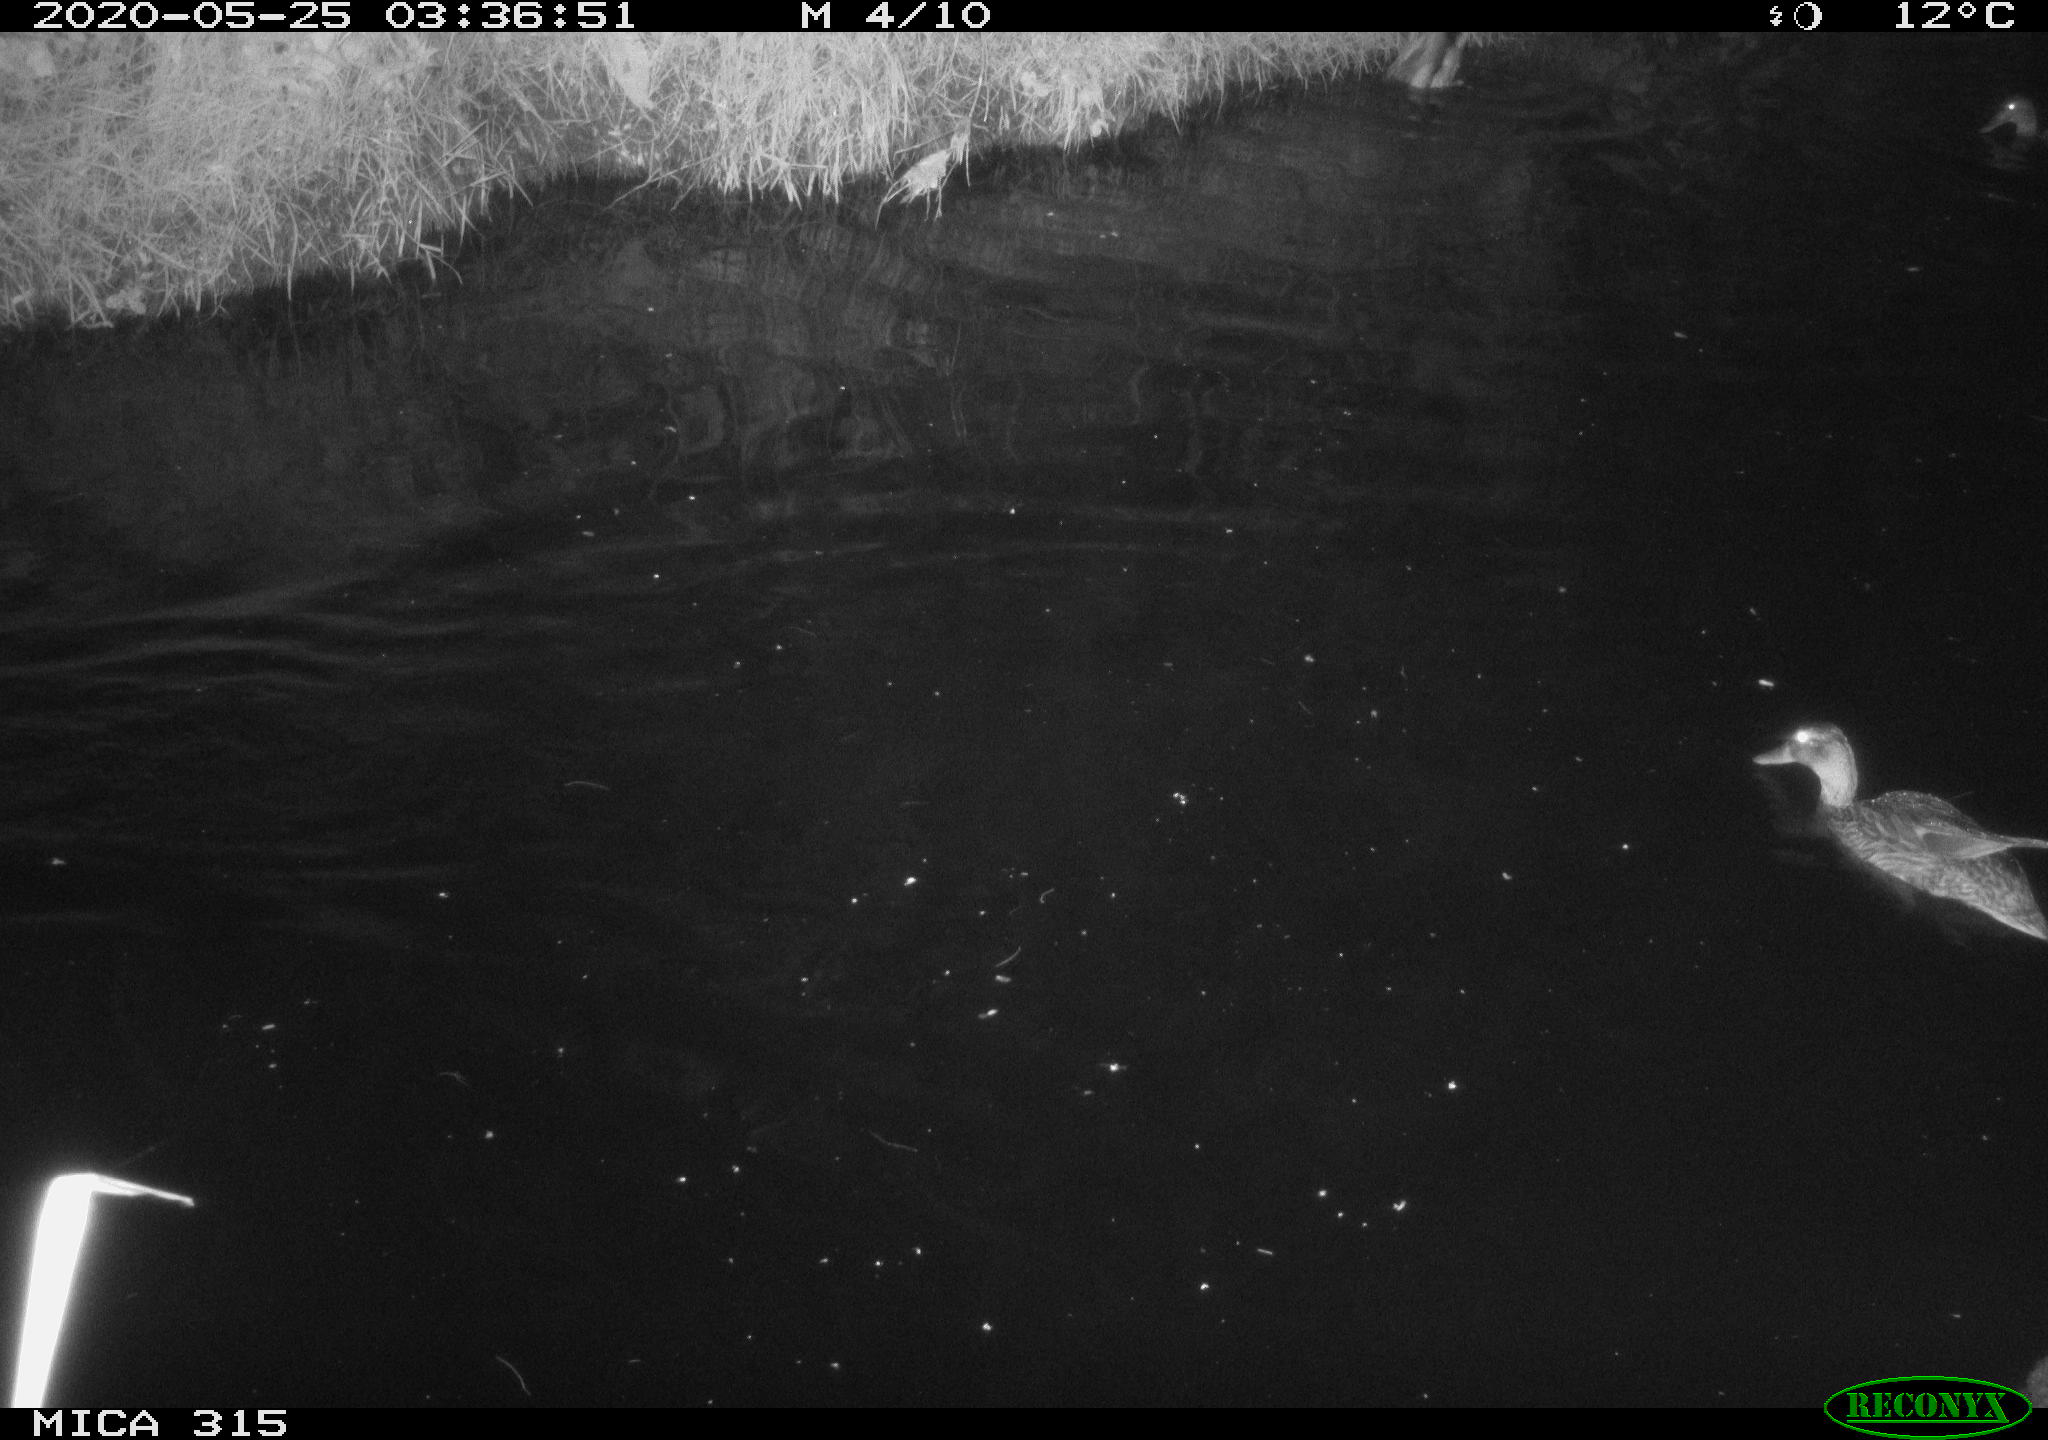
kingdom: Animalia
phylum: Chordata
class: Aves
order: Anseriformes
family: Anatidae
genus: Anas
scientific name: Anas platyrhynchos
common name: Mallard
